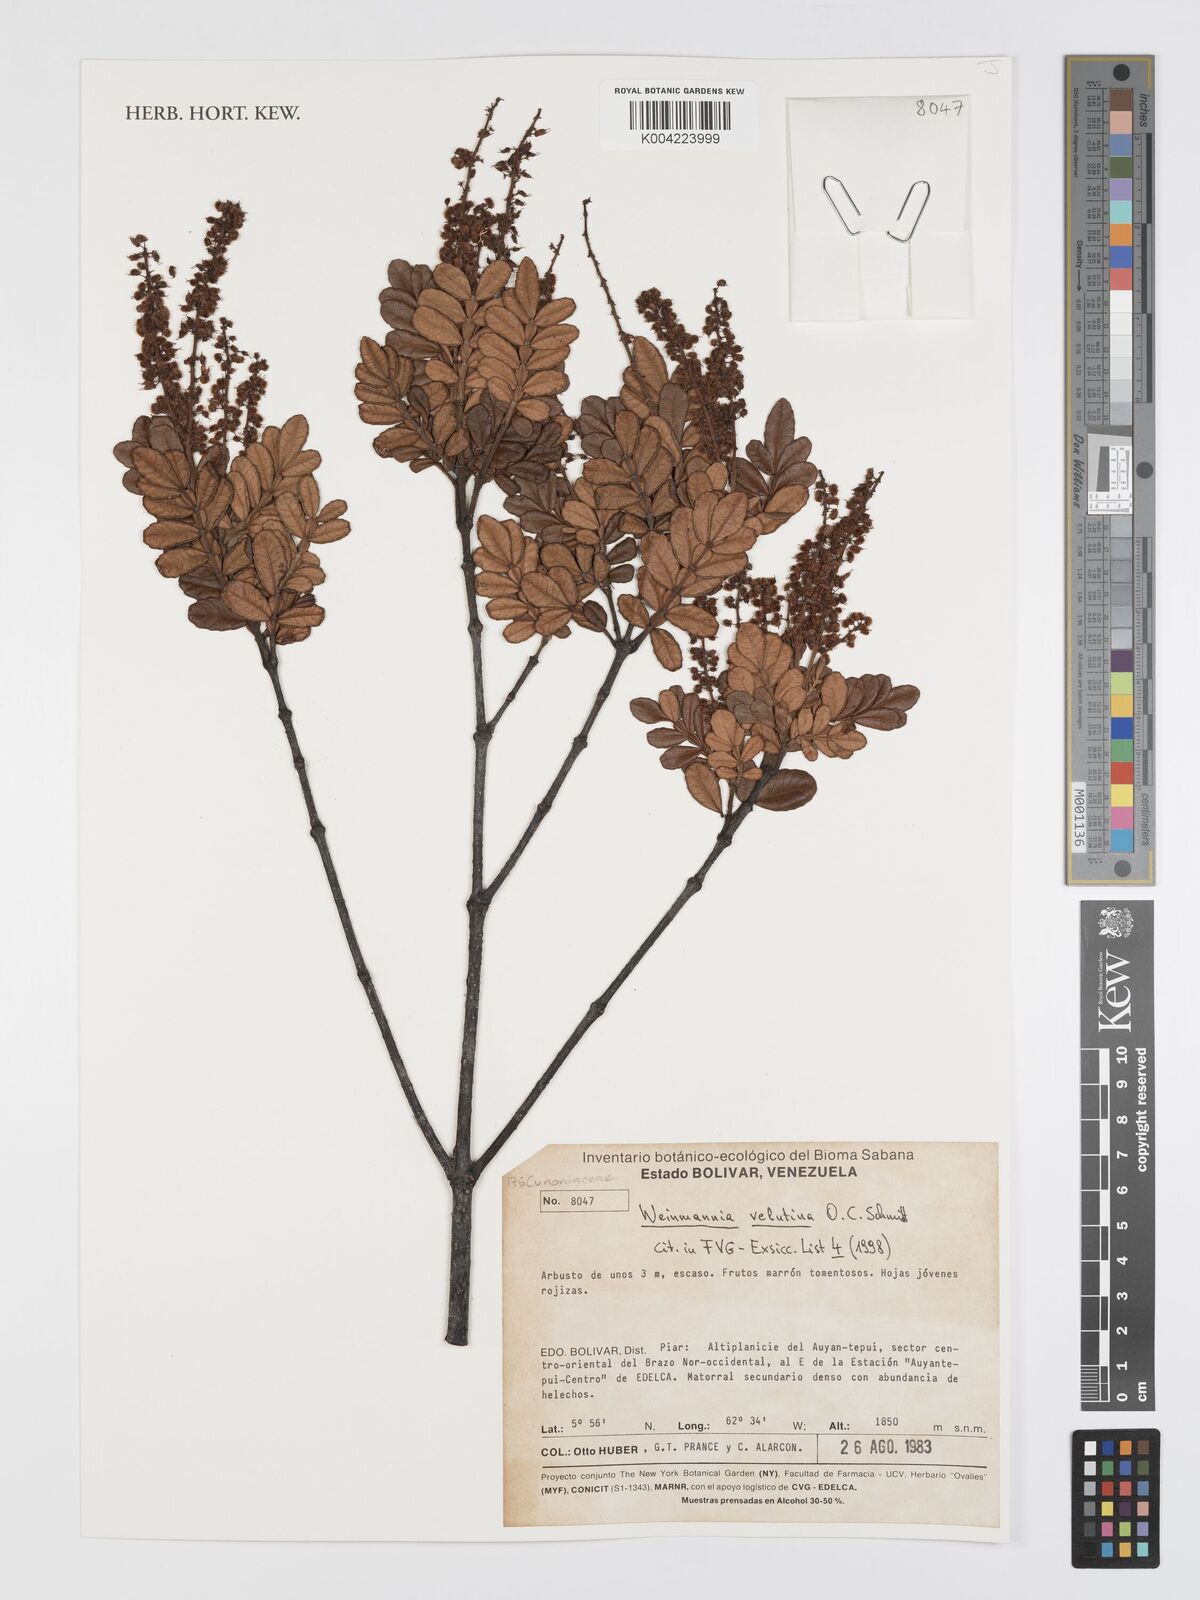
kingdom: Plantae
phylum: Tracheophyta
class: Magnoliopsida
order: Oxalidales
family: Cunoniaceae
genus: Weinmannia
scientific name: Weinmannia velutina
